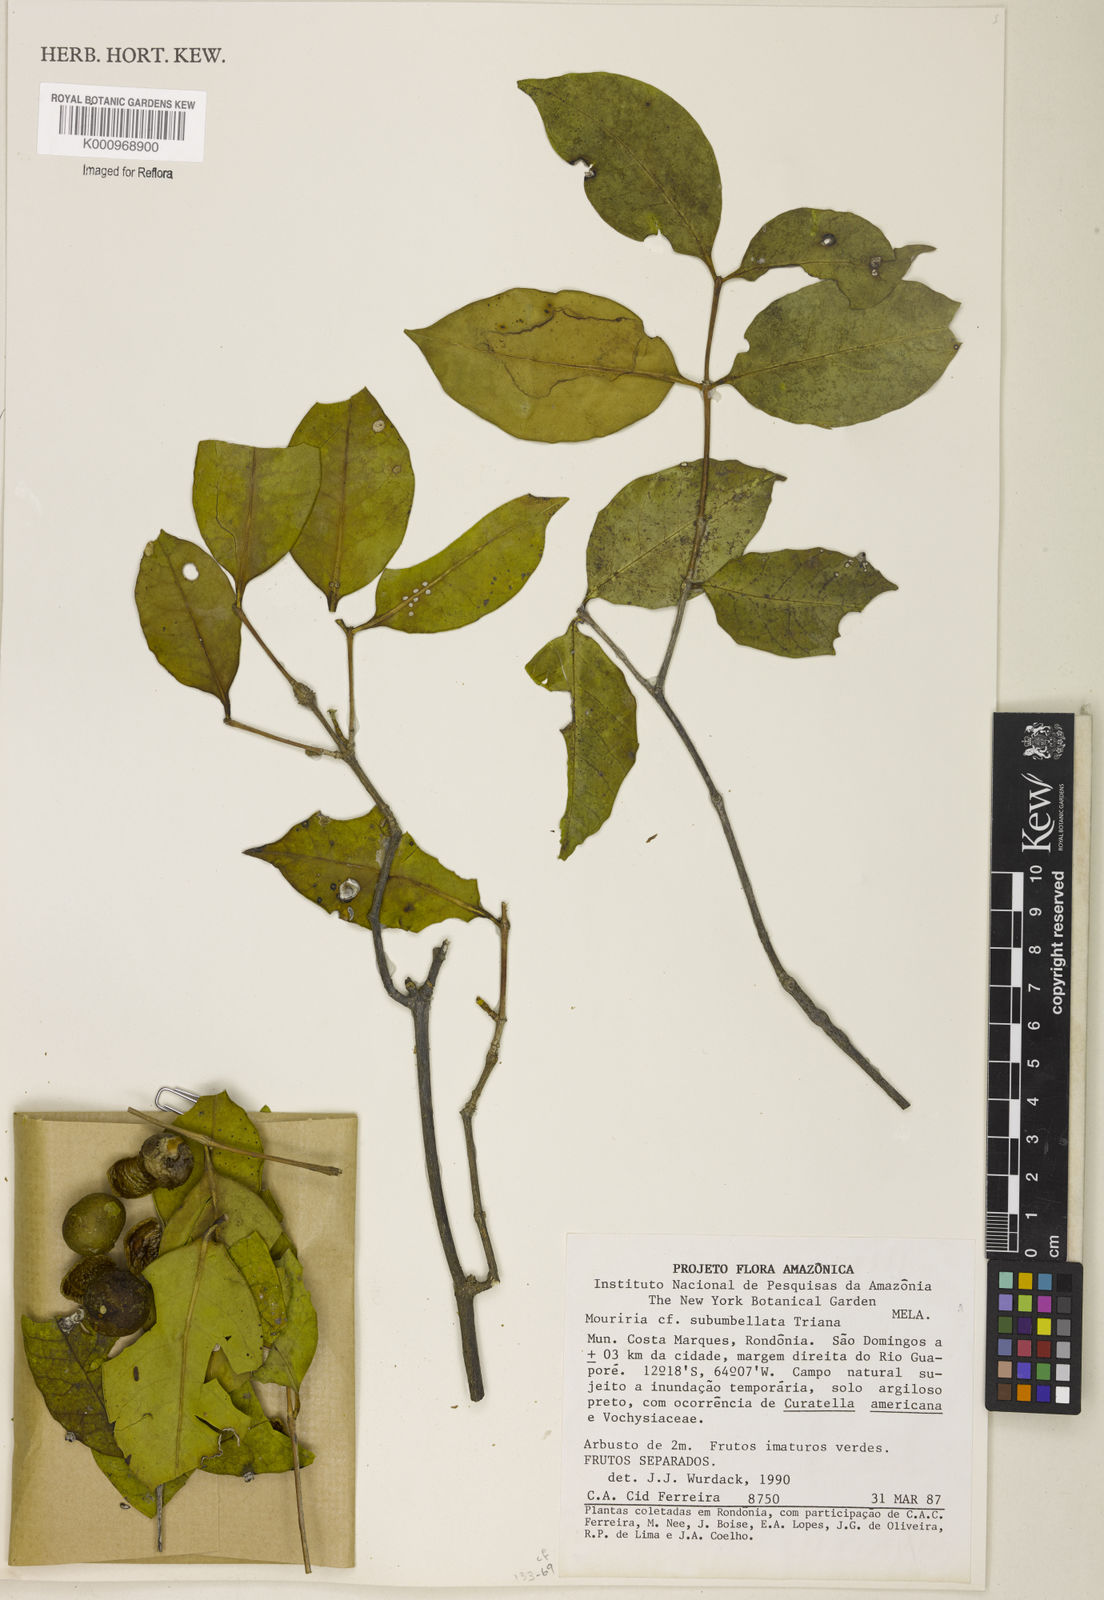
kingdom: Plantae
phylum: Tracheophyta
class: Magnoliopsida
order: Myrtales
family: Melastomataceae
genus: Mouriri
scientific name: Mouriri subumbellata
